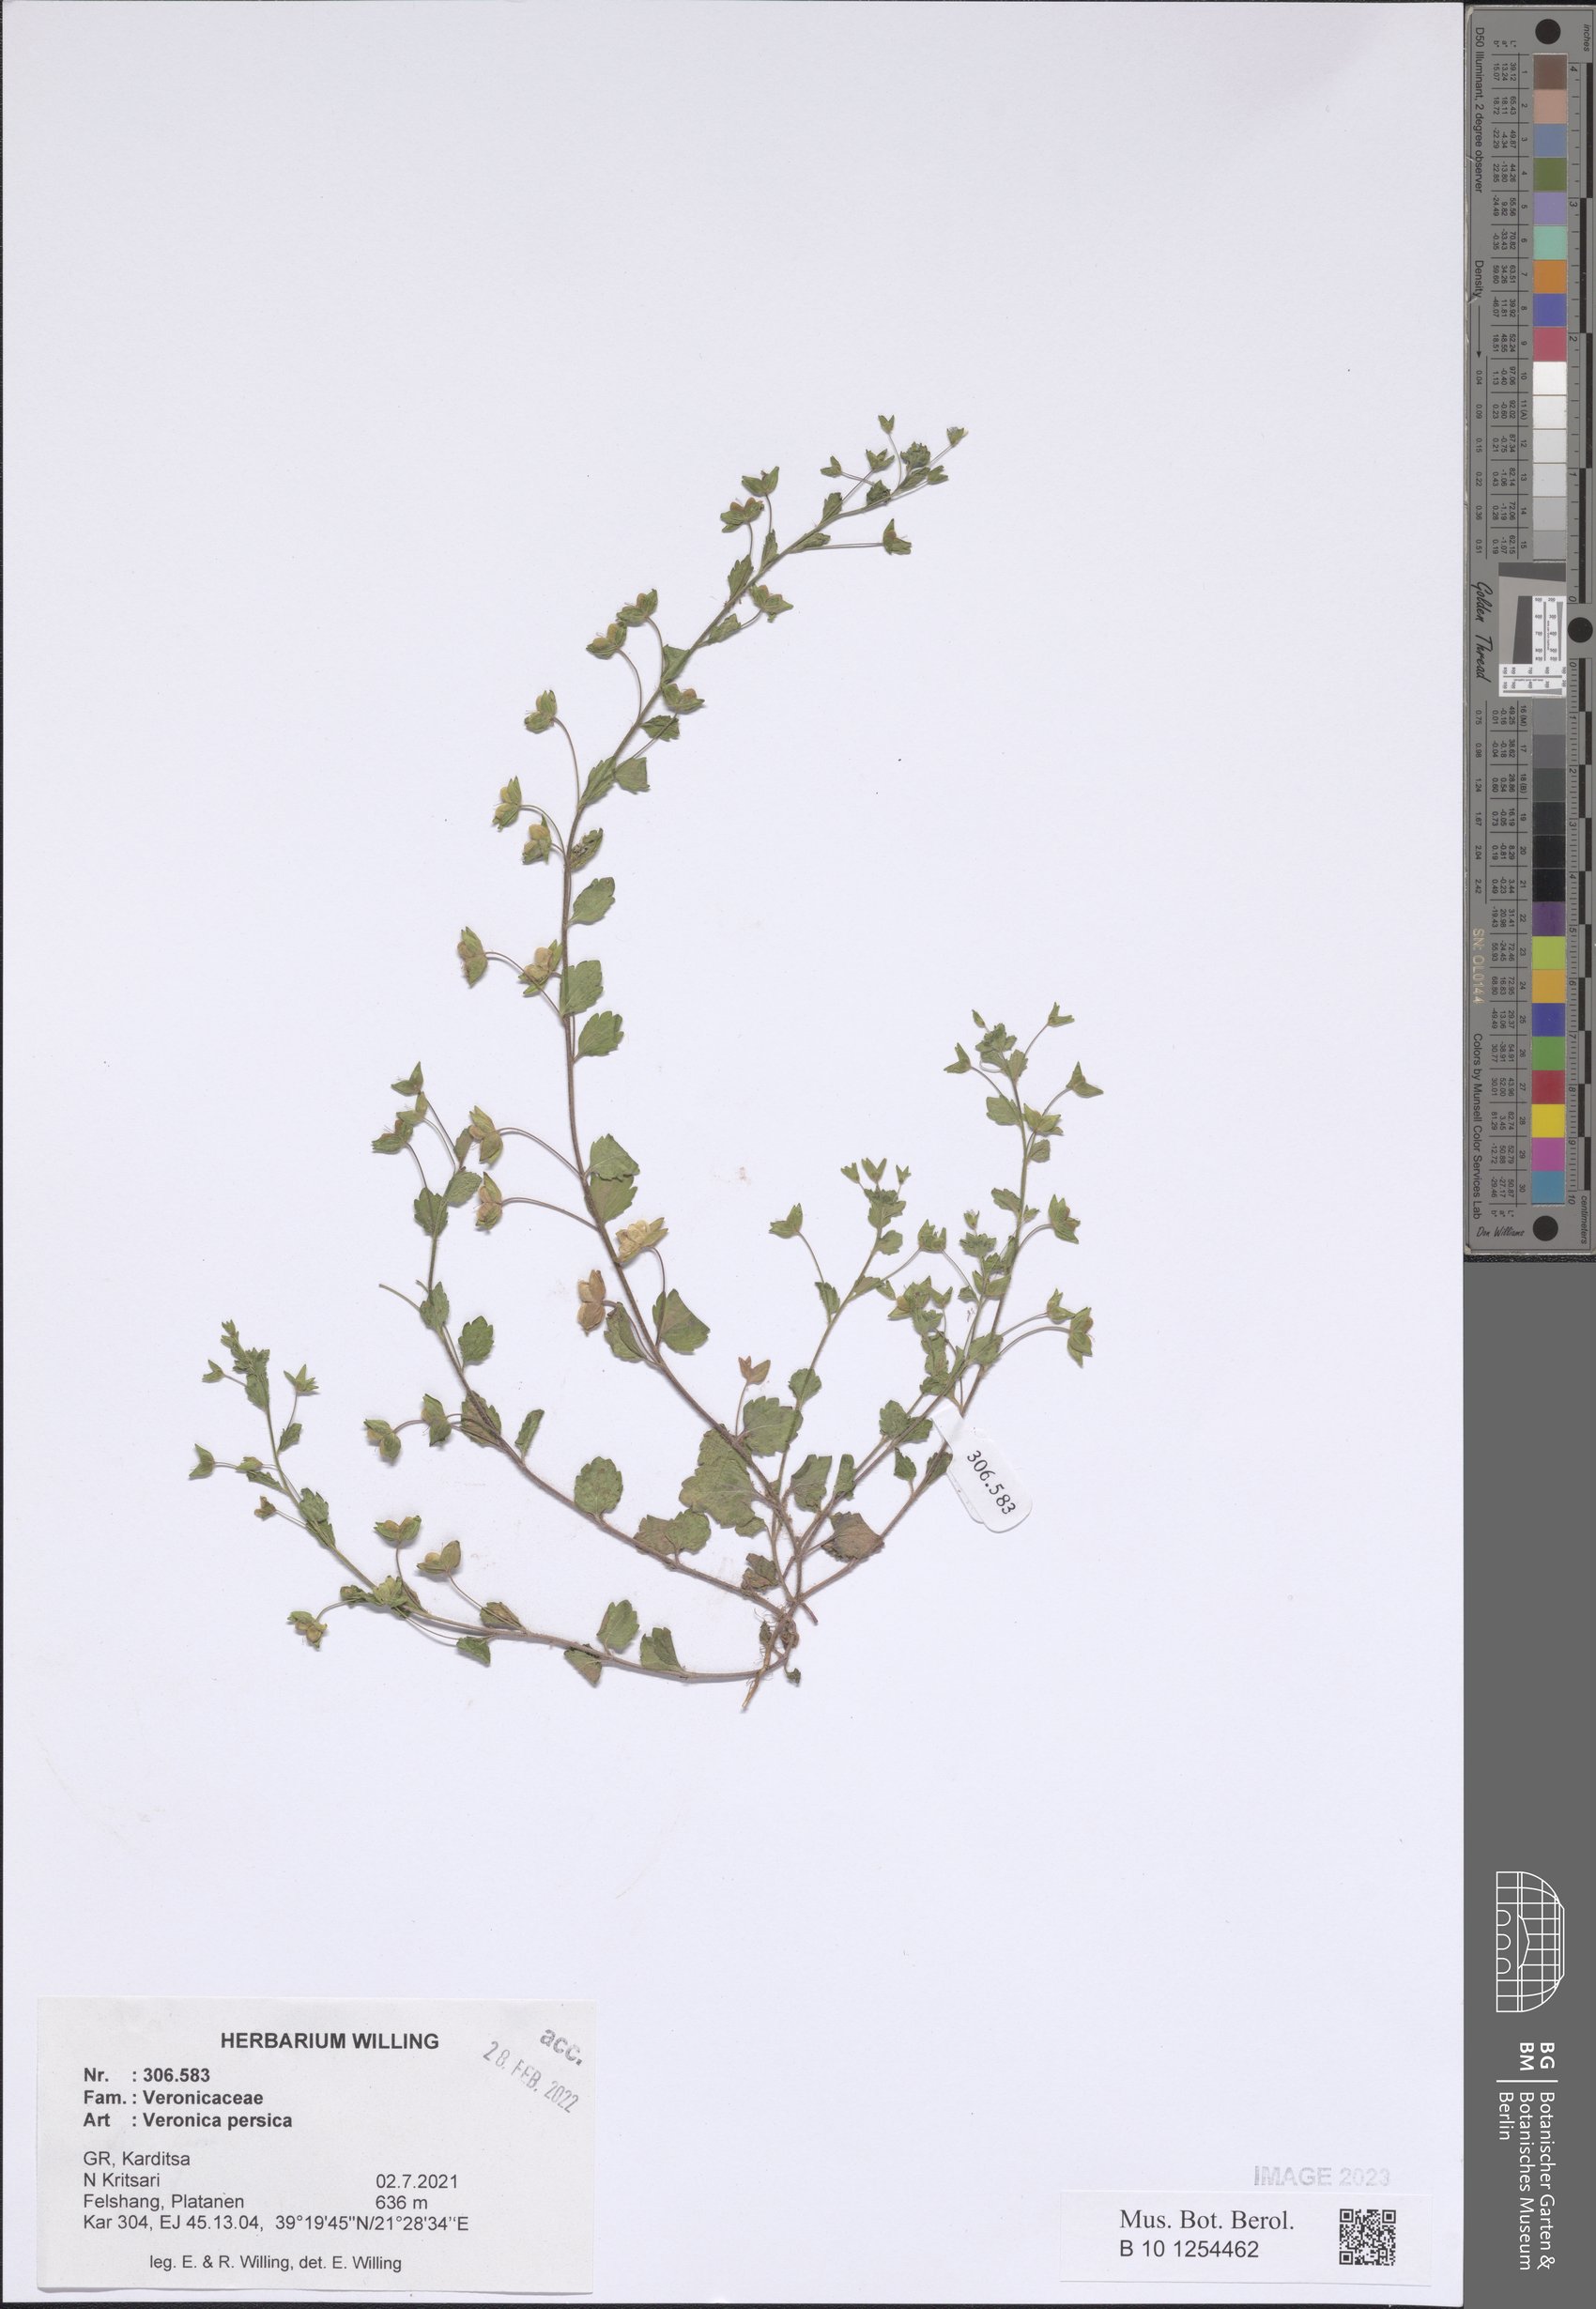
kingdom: Plantae
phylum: Tracheophyta
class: Magnoliopsida
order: Lamiales
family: Plantaginaceae
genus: Veronica
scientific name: Veronica persica
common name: Common field-speedwell
